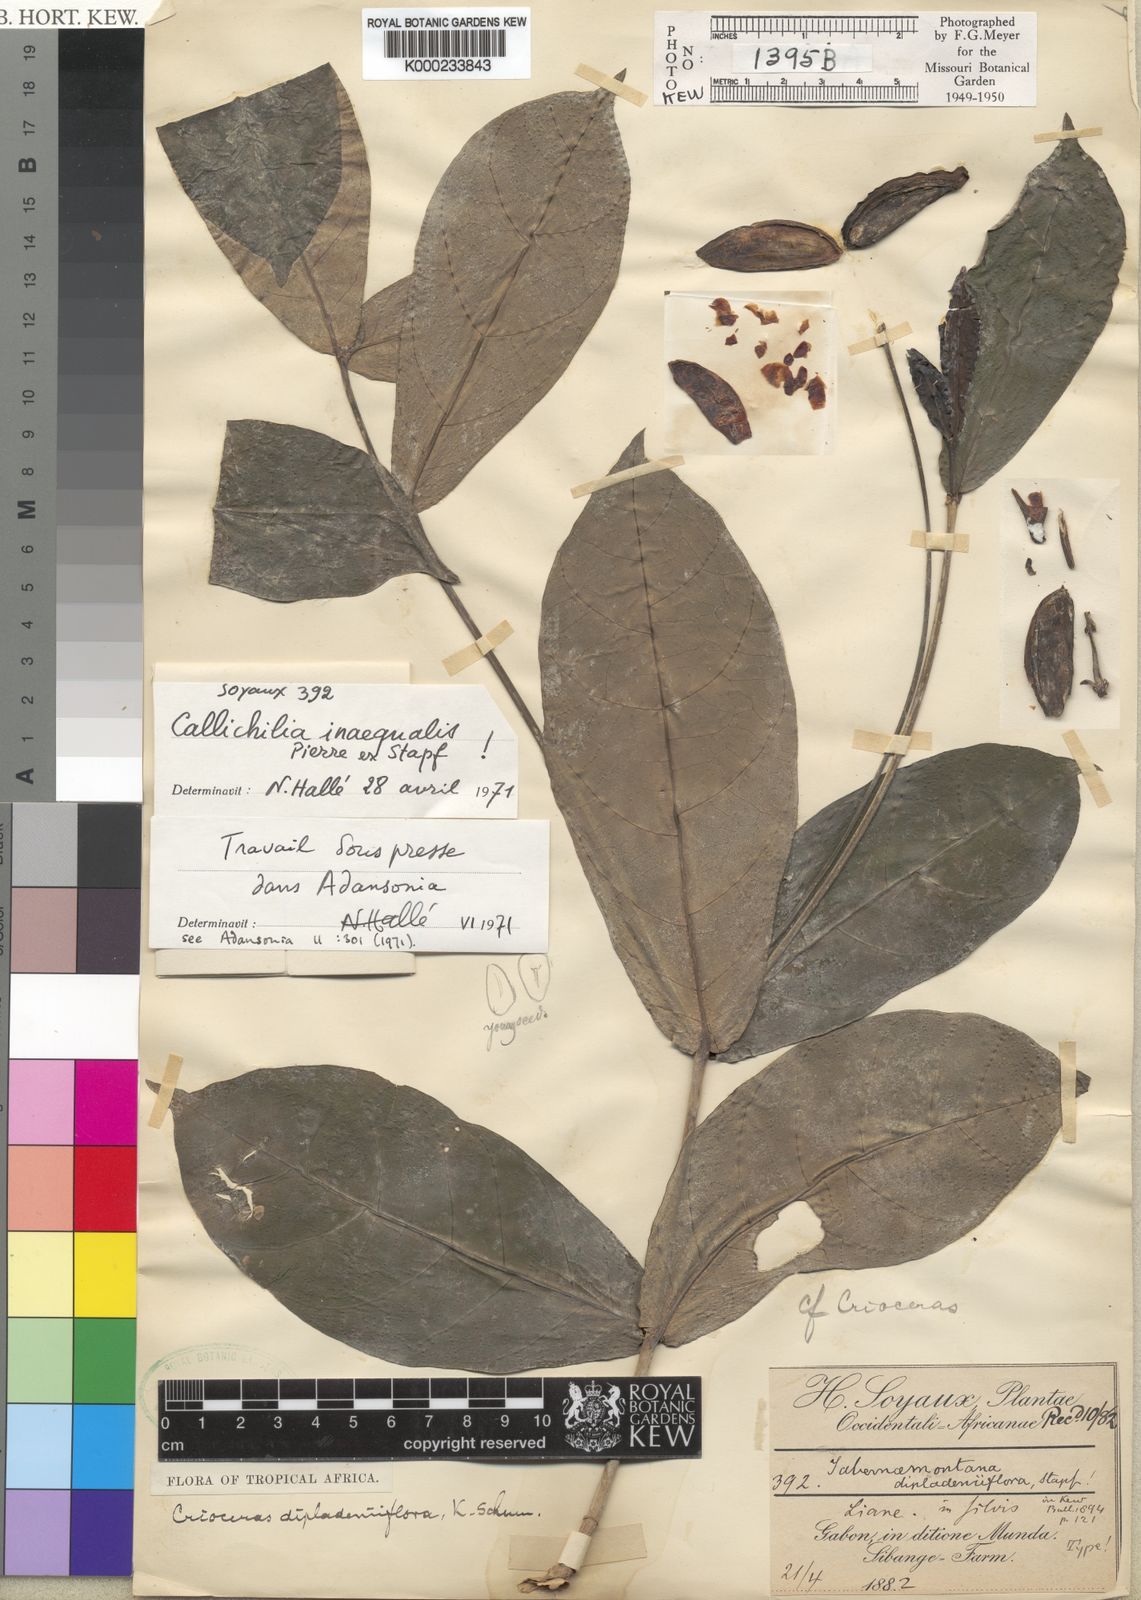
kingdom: Plantae
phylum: Tracheophyta
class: Magnoliopsida
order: Gentianales
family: Apocynaceae
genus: Callichilia
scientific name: Callichilia inaequalis
